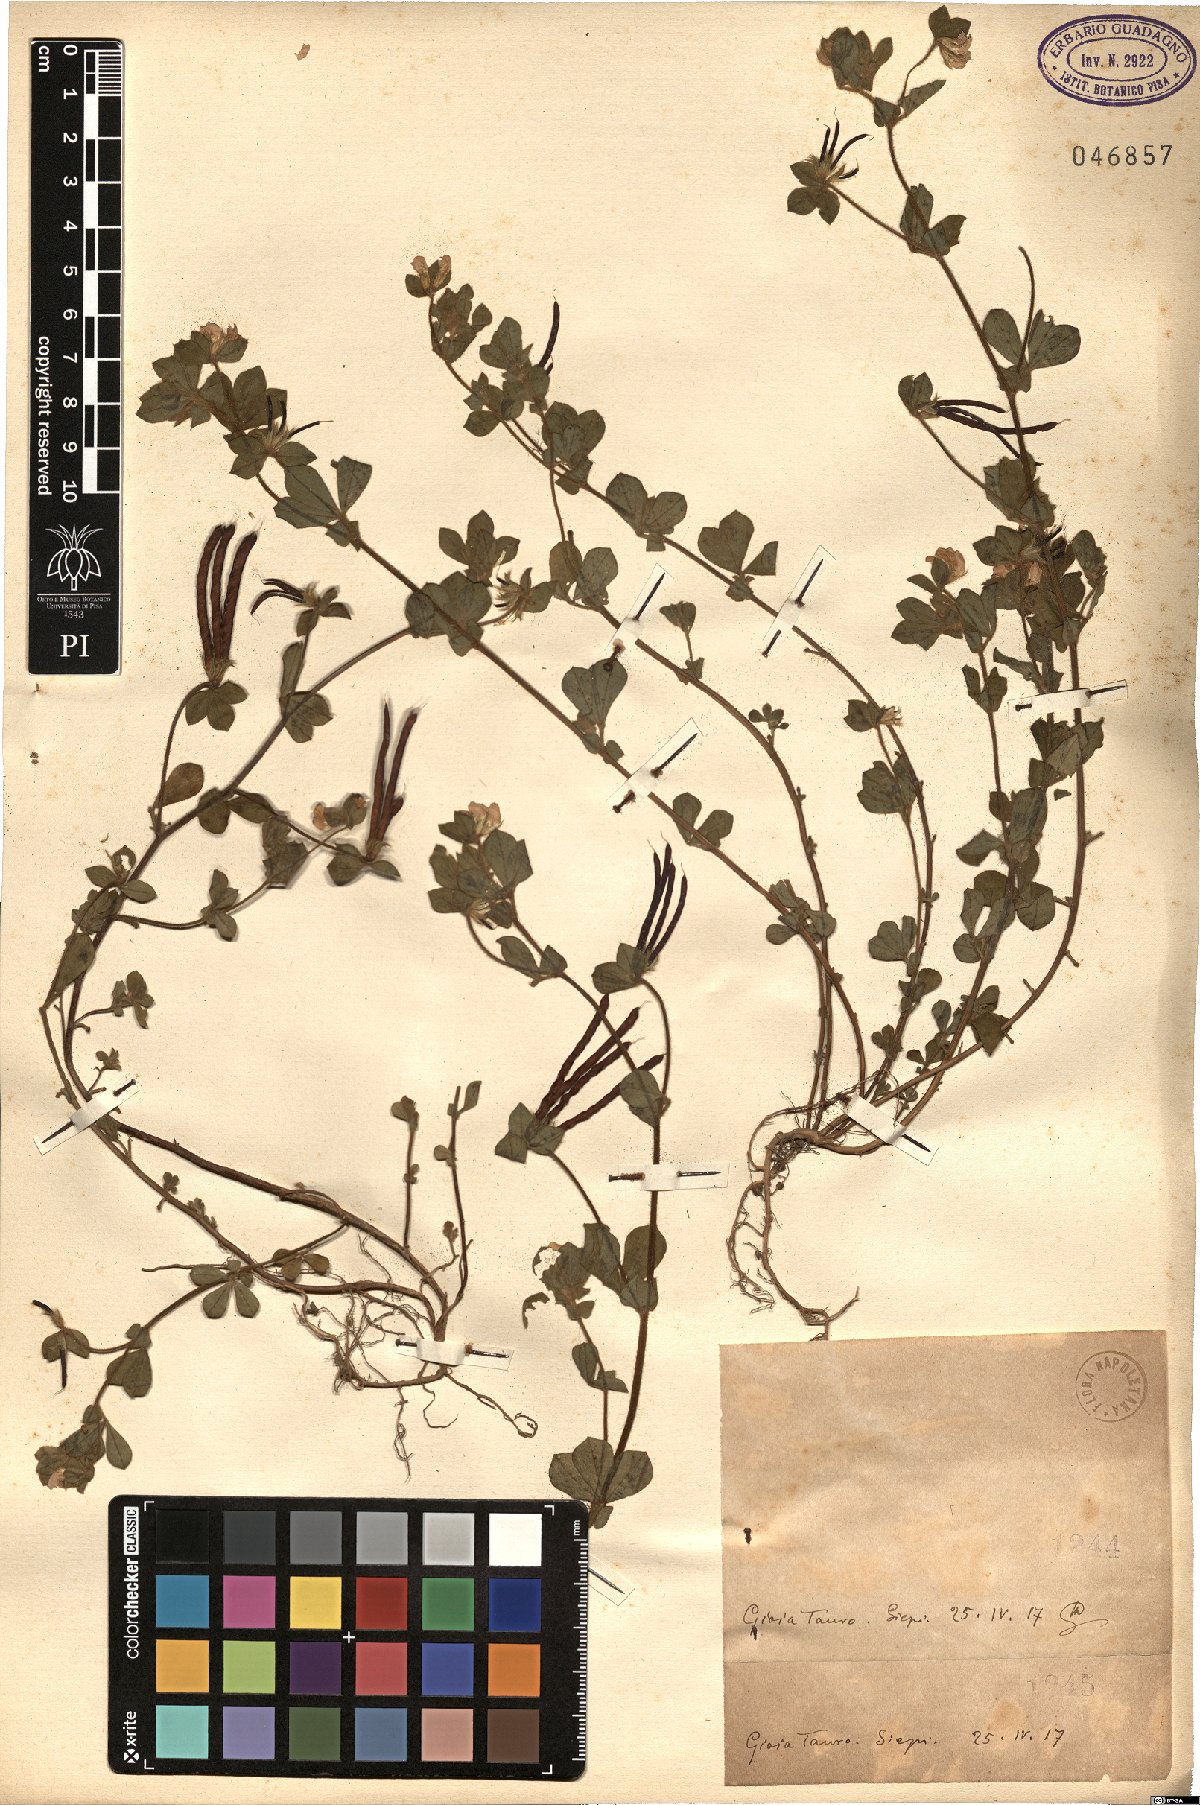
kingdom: Plantae
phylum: Tracheophyta
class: Magnoliopsida
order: Fabales
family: Fabaceae
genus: Lotus
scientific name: Lotus
